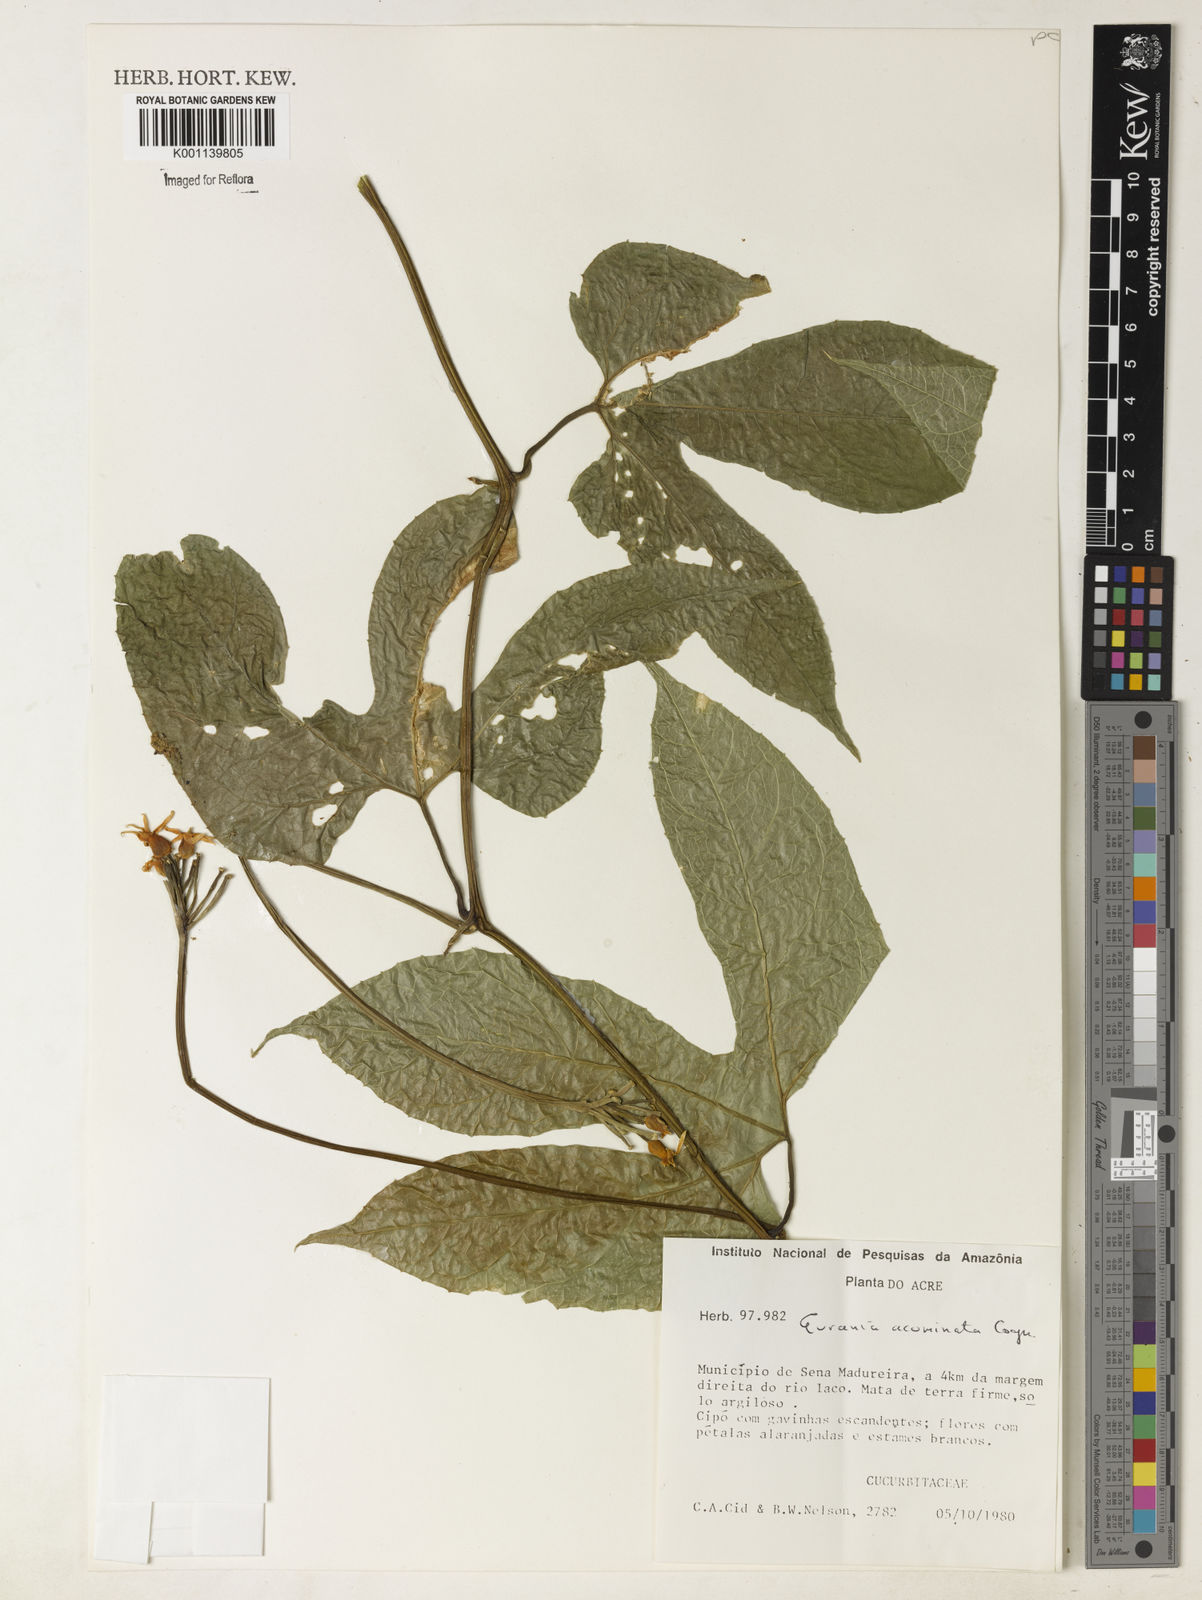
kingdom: Plantae
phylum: Tracheophyta
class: Magnoliopsida
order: Cucurbitales
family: Cucurbitaceae
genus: Gurania
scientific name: Gurania acuminata
